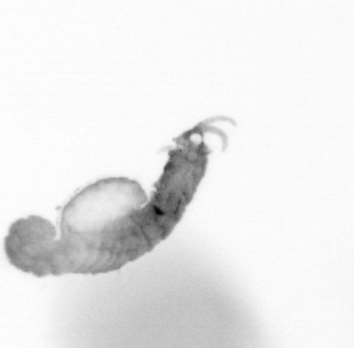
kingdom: Animalia
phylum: Annelida
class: Polychaeta
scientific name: Polychaeta
